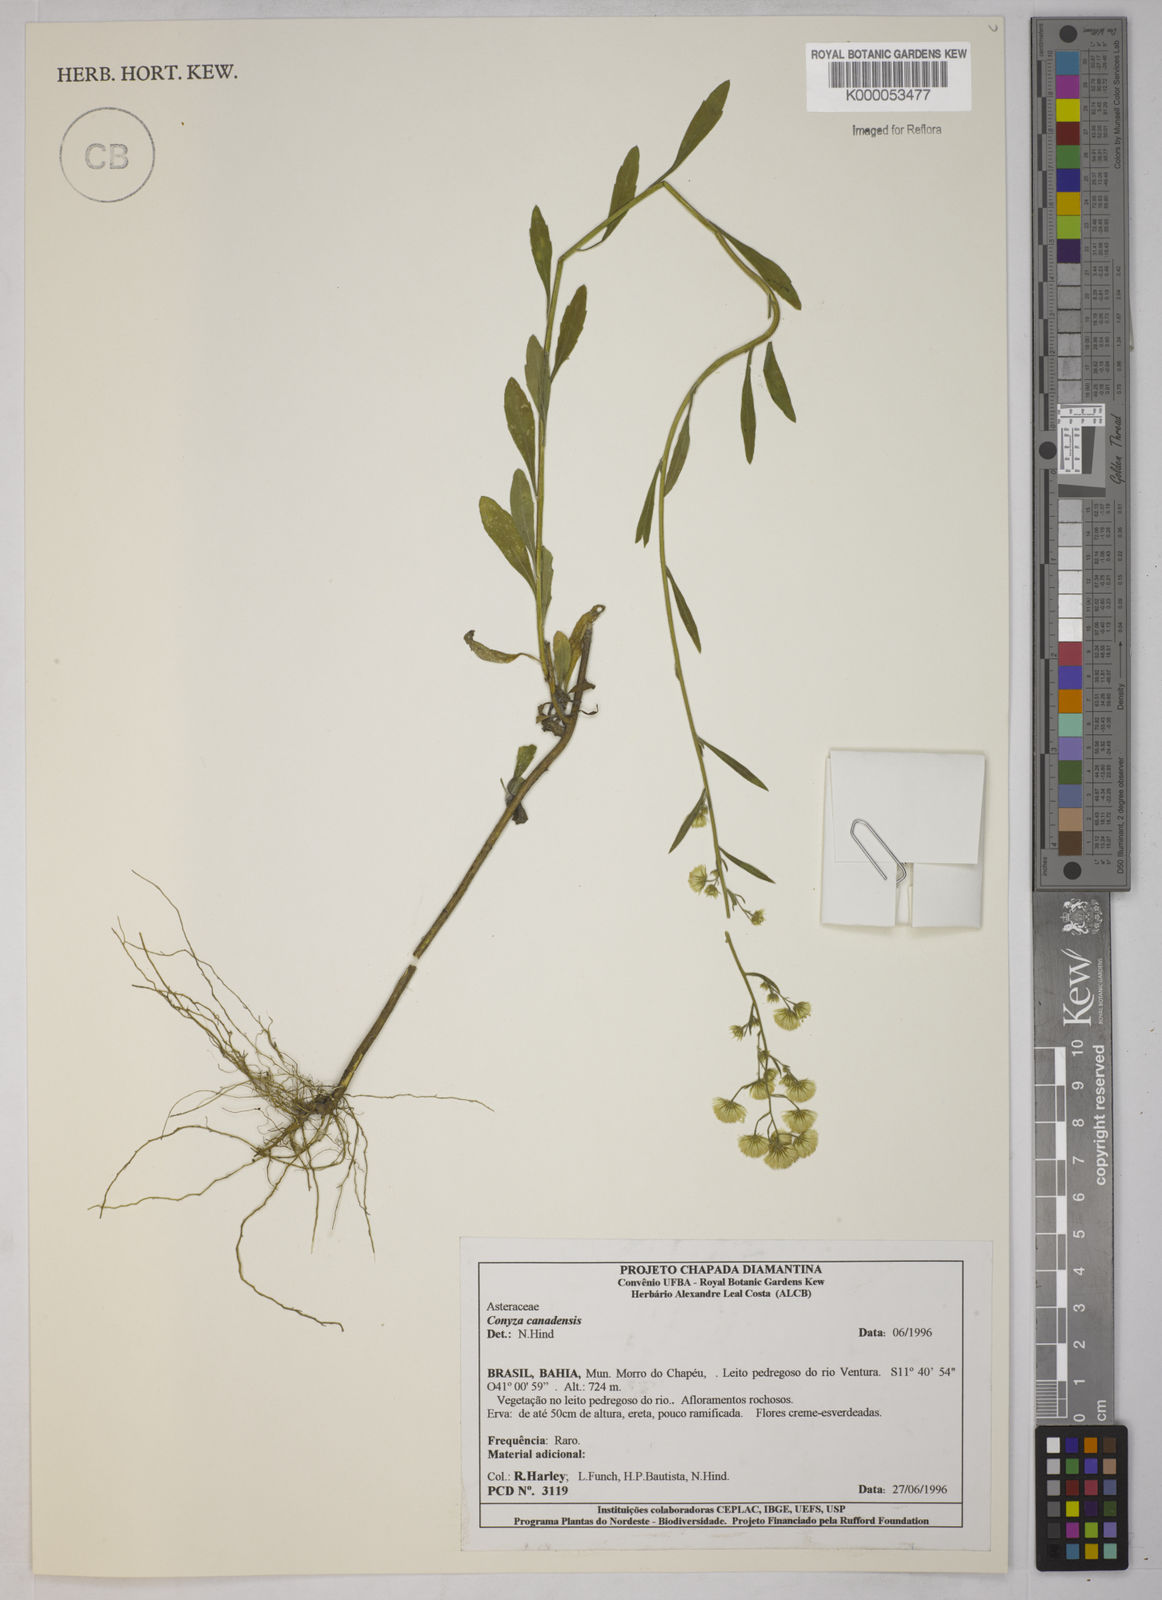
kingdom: Plantae
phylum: Tracheophyta
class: Magnoliopsida
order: Asterales
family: Asteraceae
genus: Erigeron
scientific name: Erigeron canadensis
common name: Canadian fleabane
